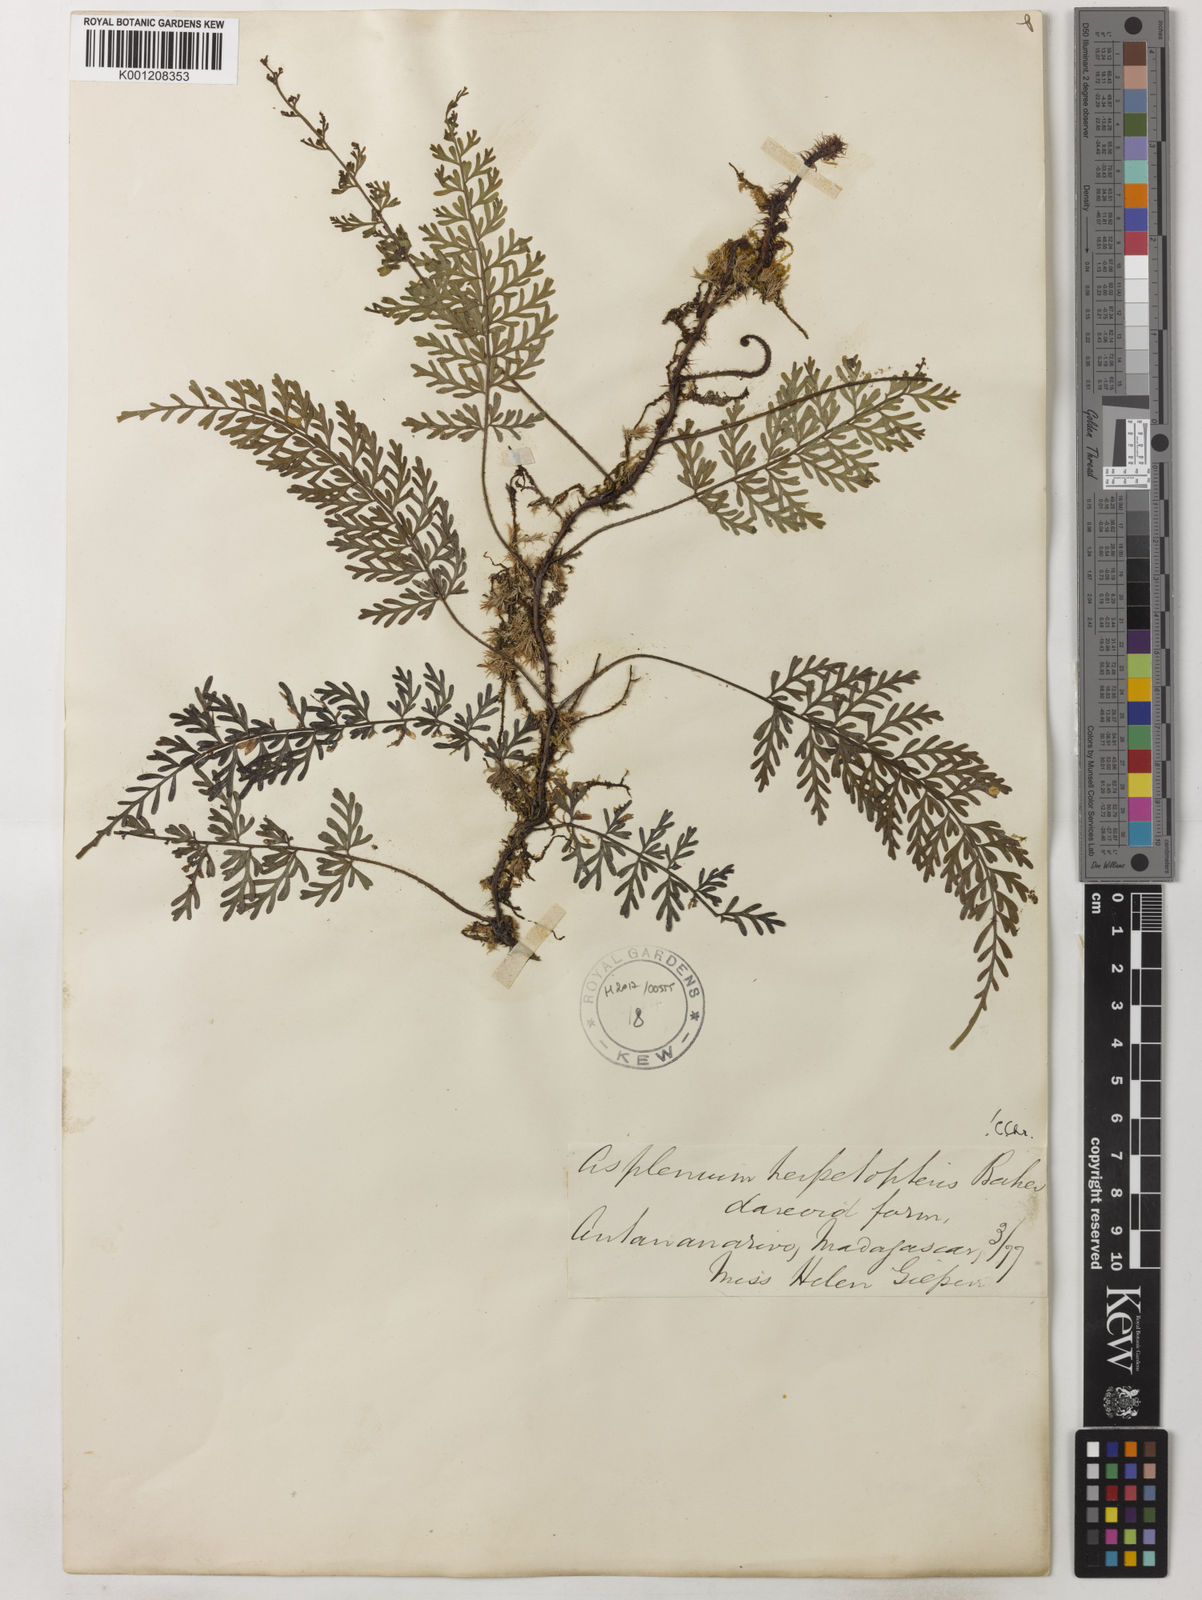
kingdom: Plantae
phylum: Tracheophyta
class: Polypodiopsida
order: Polypodiales
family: Aspleniaceae
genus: Asplenium
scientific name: Asplenium herpetopteris
